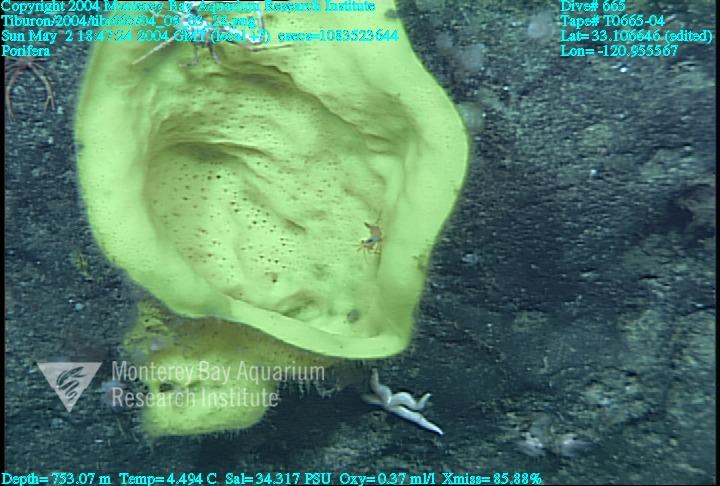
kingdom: Animalia
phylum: Porifera
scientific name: Porifera
